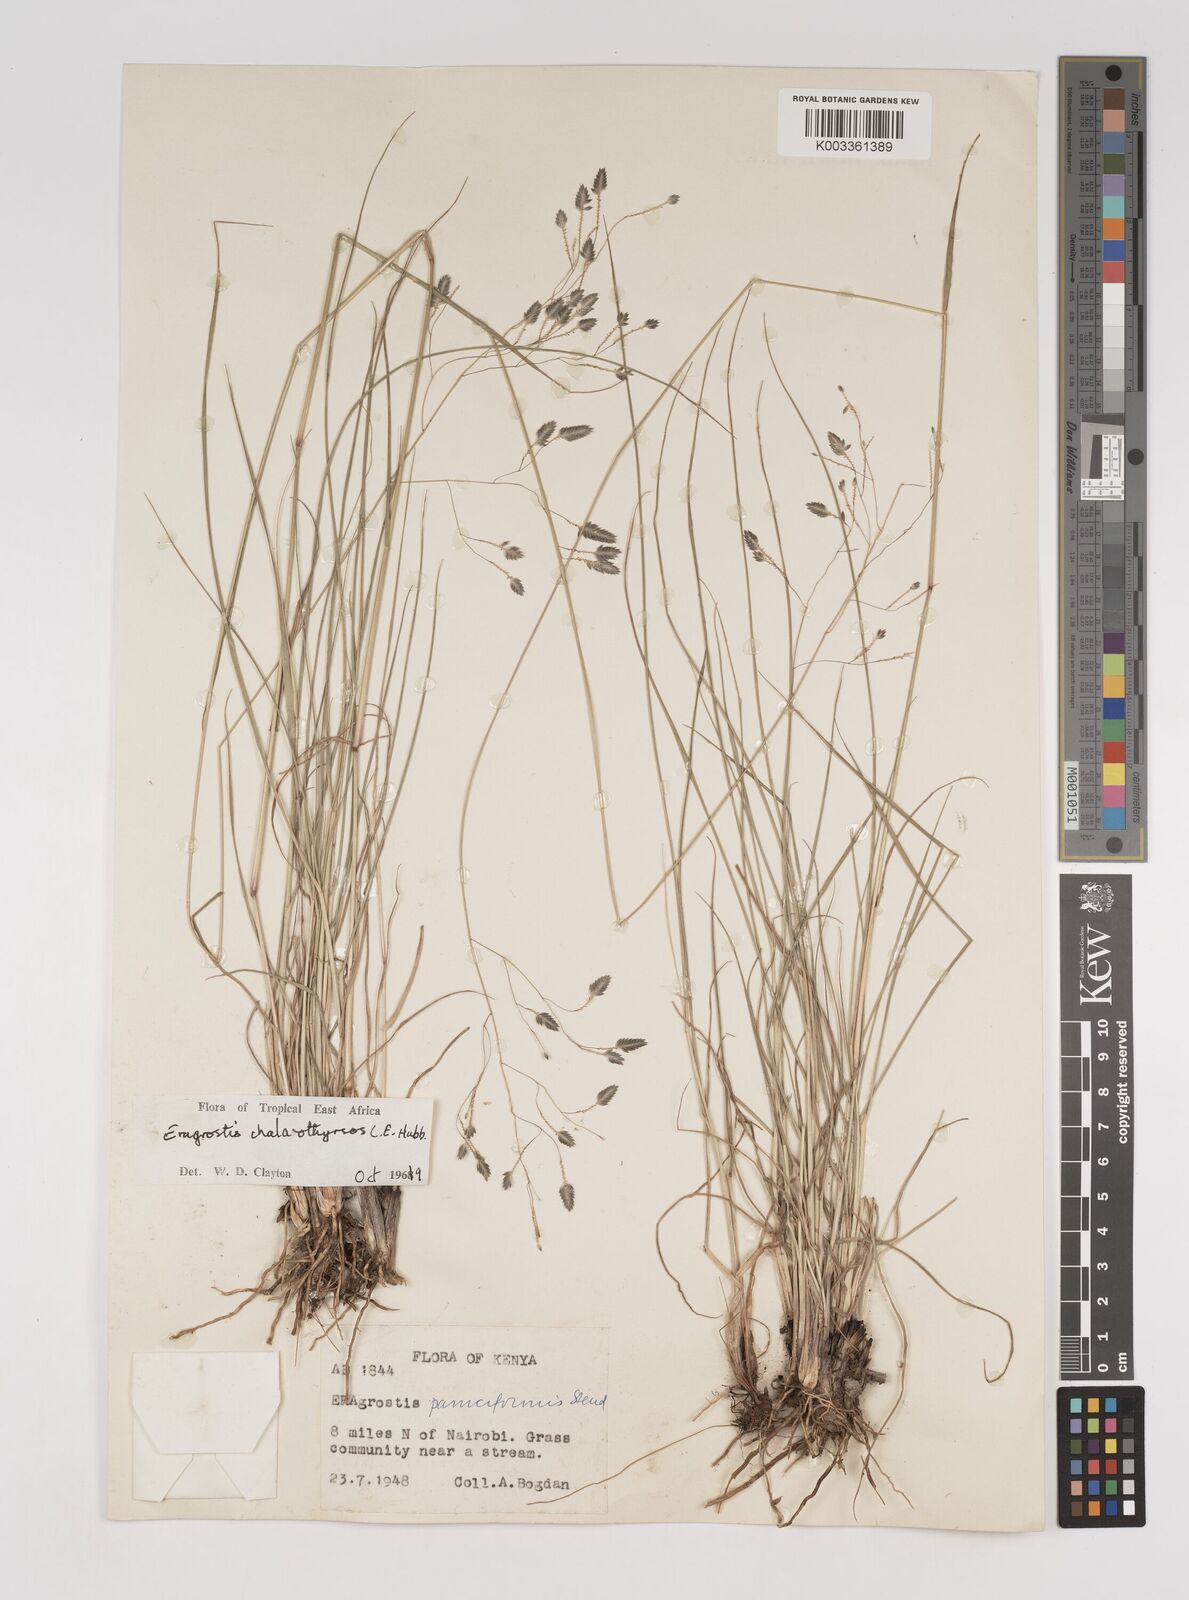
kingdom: Plantae
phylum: Tracheophyta
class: Liliopsida
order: Poales
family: Poaceae
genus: Eragrostis
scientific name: Eragrostis chalarothyrsos
